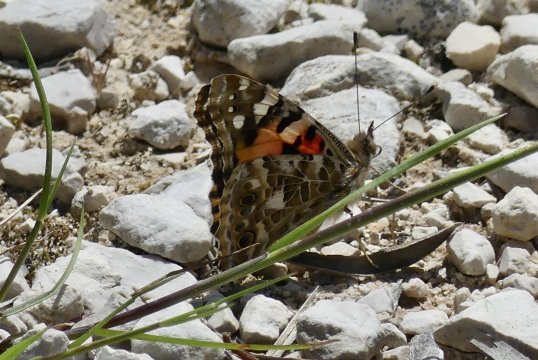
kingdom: Animalia
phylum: Arthropoda
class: Insecta
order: Lepidoptera
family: Nymphalidae
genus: Vanessa
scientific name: Vanessa cardui
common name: Painted Lady
